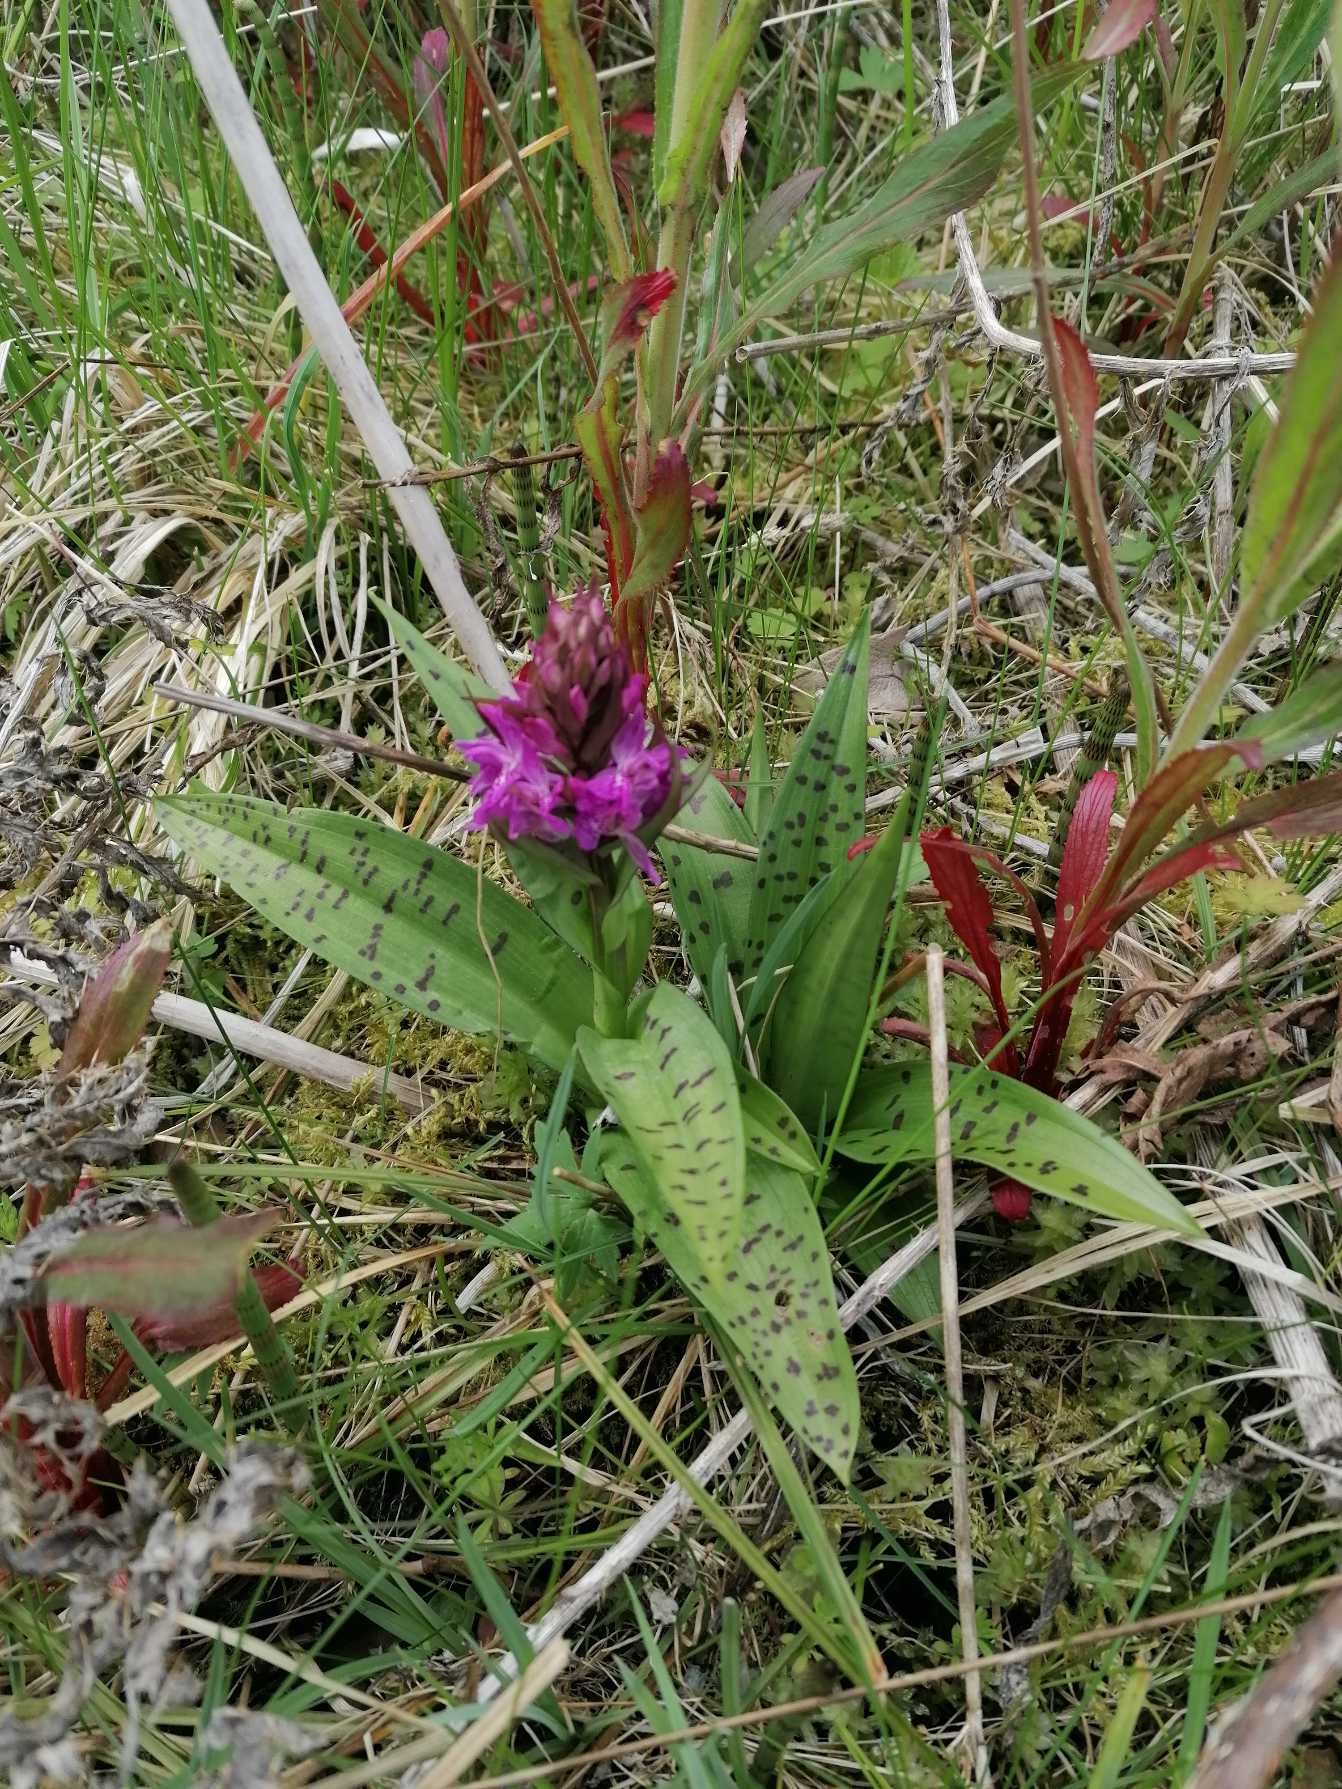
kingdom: Plantae
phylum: Tracheophyta
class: Liliopsida
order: Asparagales
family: Orchidaceae
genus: Dactylorhiza
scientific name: Dactylorhiza majalis
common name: Maj-gøgeurt
